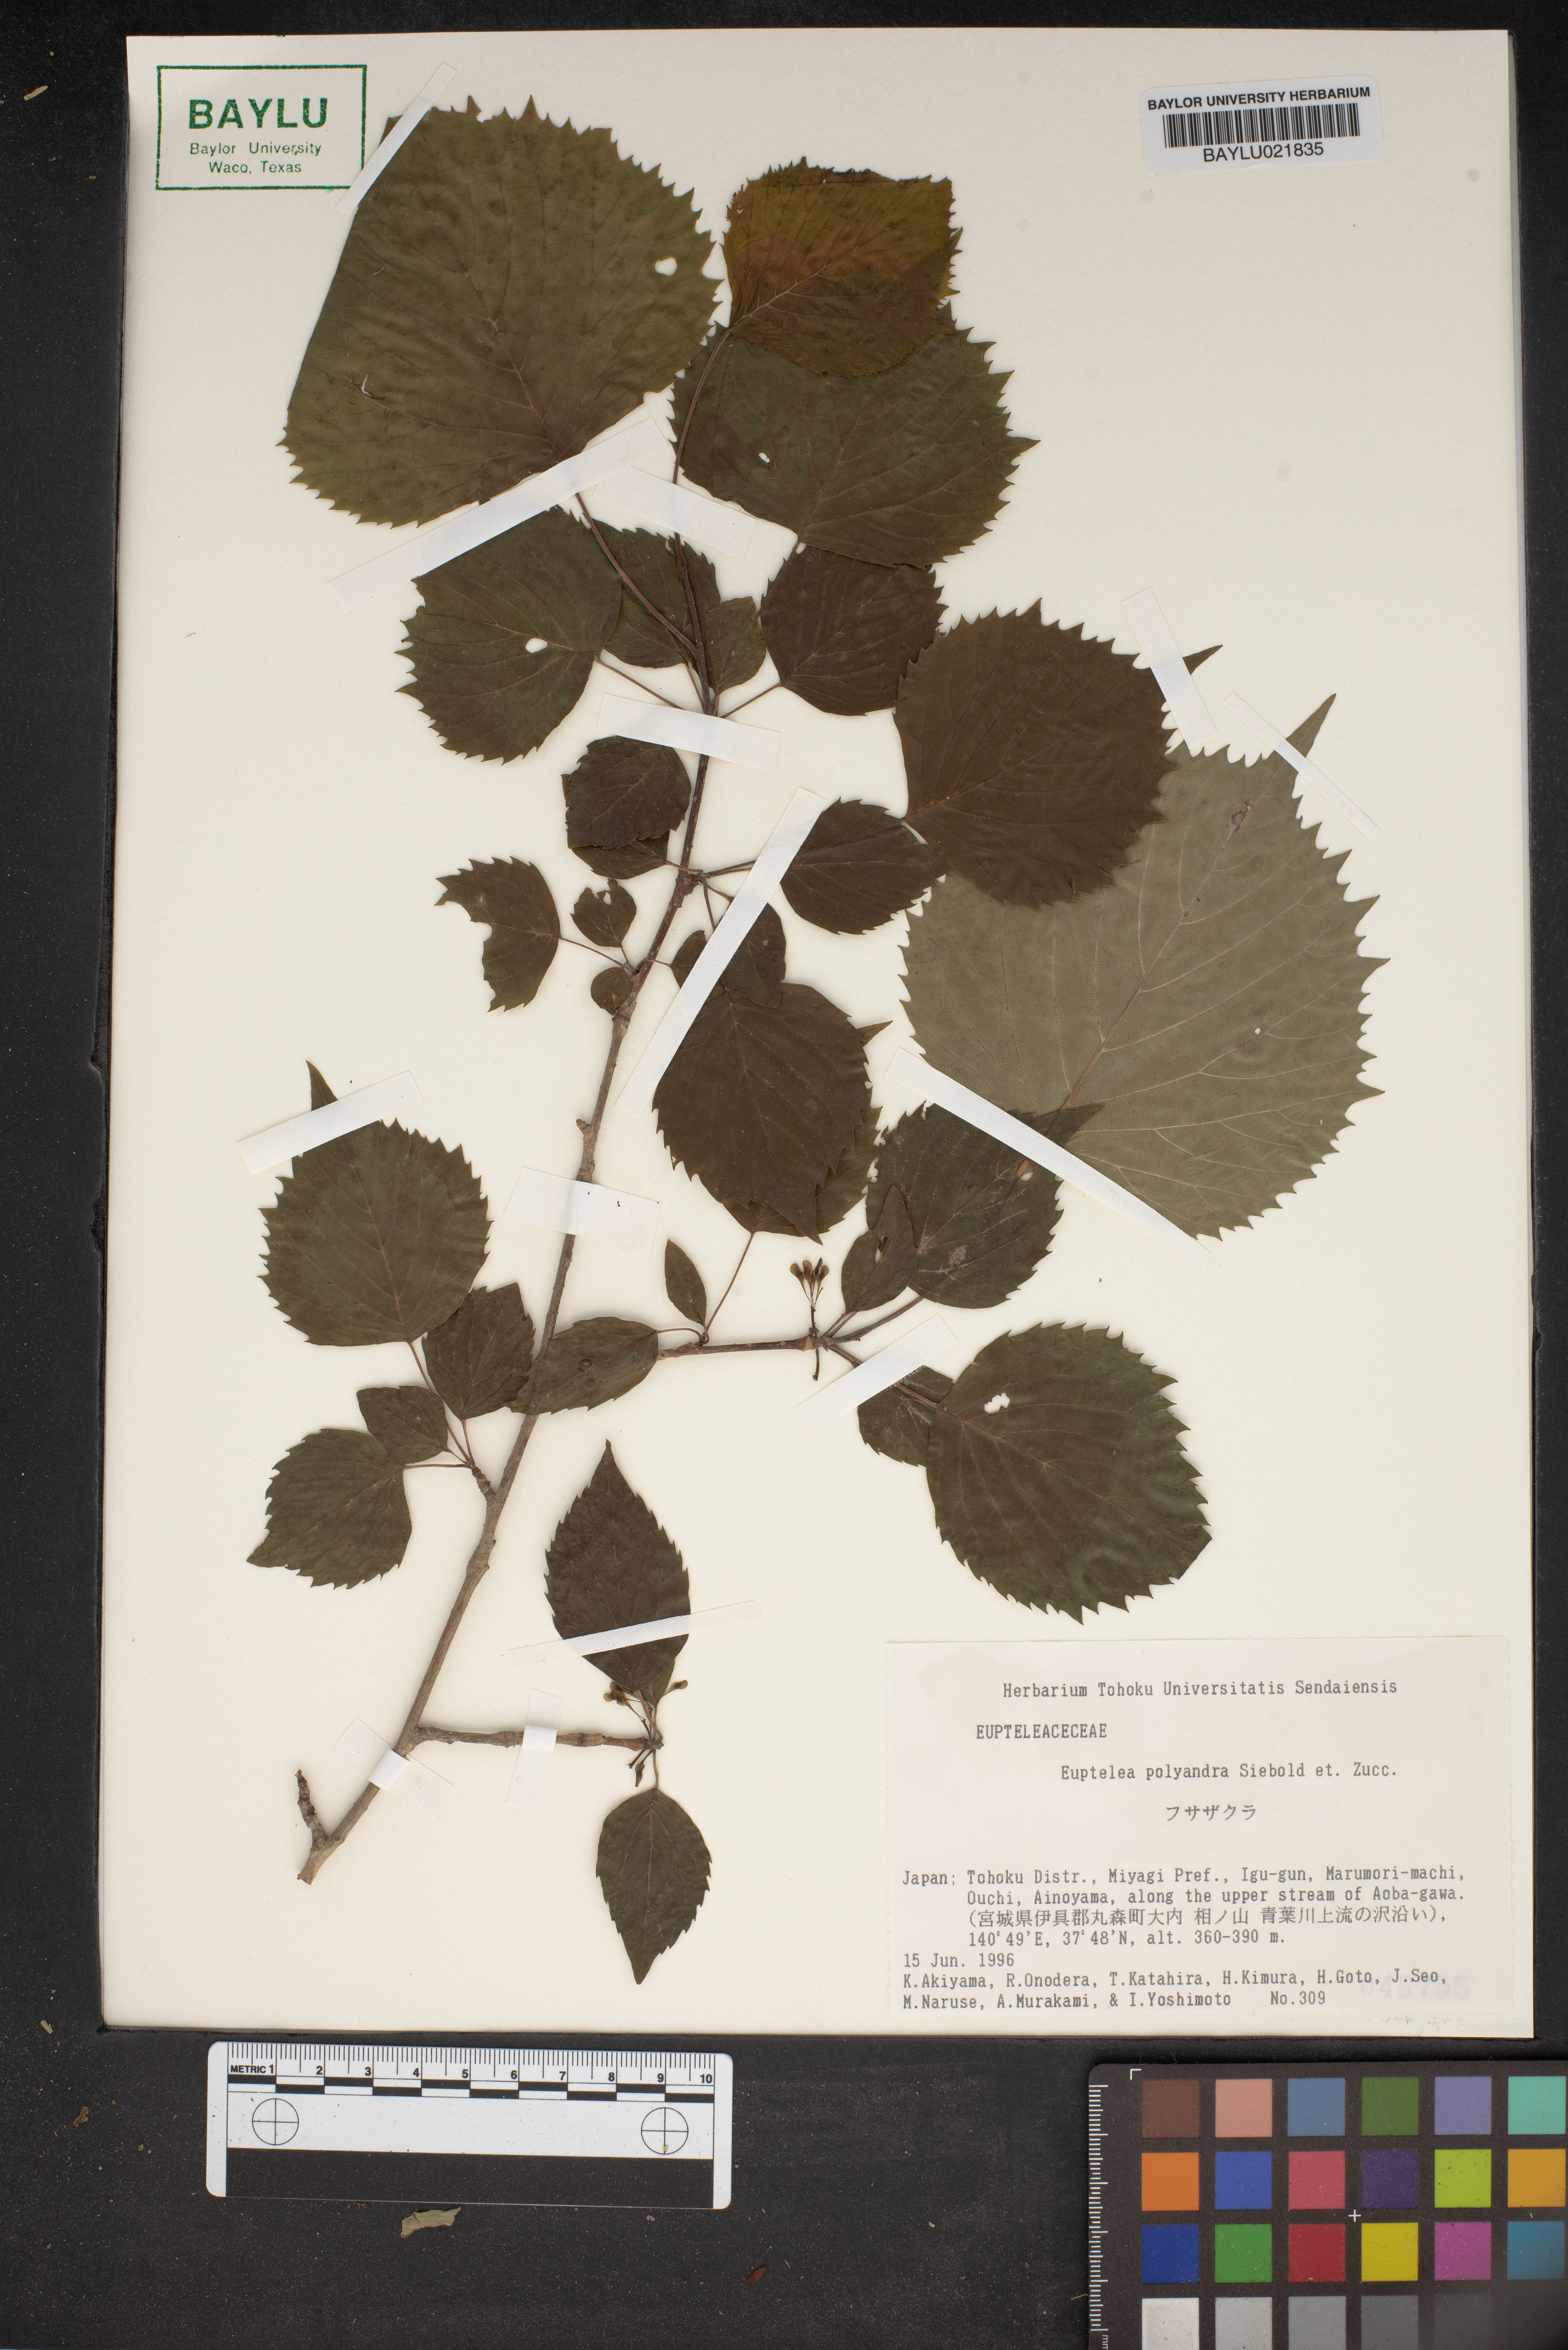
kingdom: Plantae
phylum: Tracheophyta
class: Magnoliopsida
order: Ranunculales
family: Eupteleaceae
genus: Euptelea
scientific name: Euptelea polyandra
